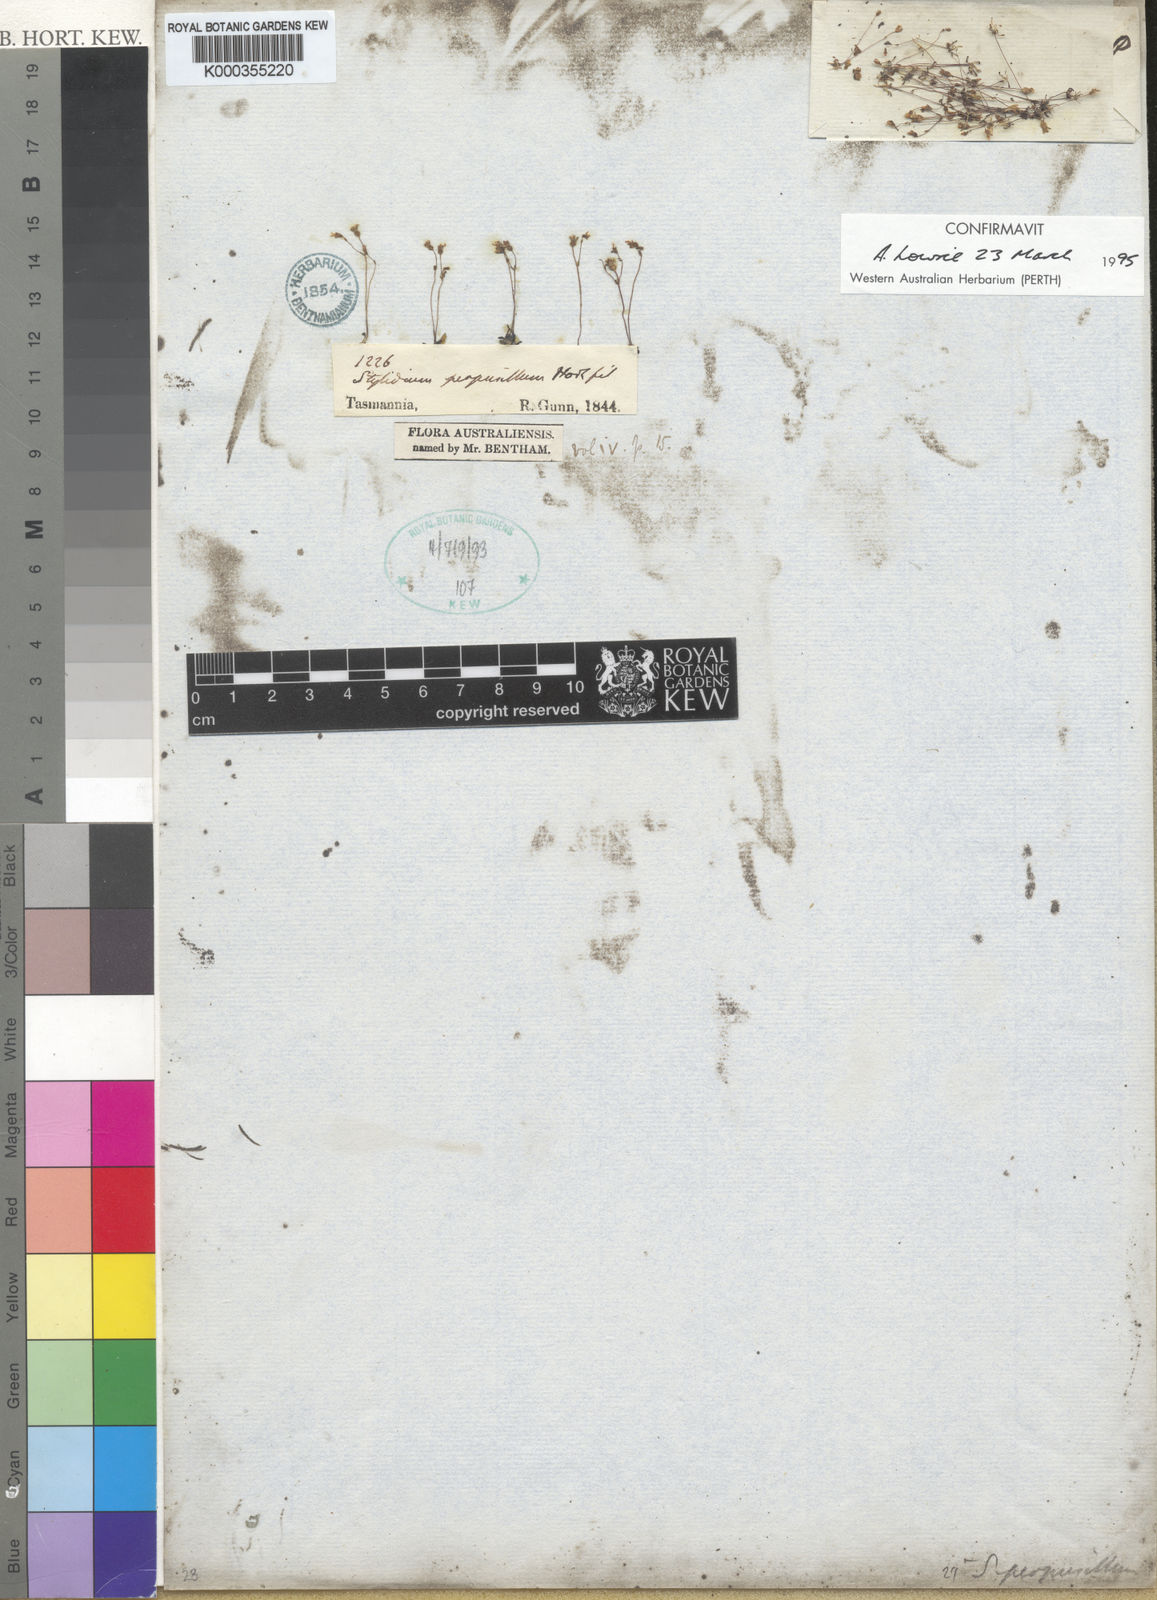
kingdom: Plantae
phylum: Tracheophyta
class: Magnoliopsida
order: Asterales
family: Stylidiaceae
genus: Stylidium
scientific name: Stylidium perpusillum
